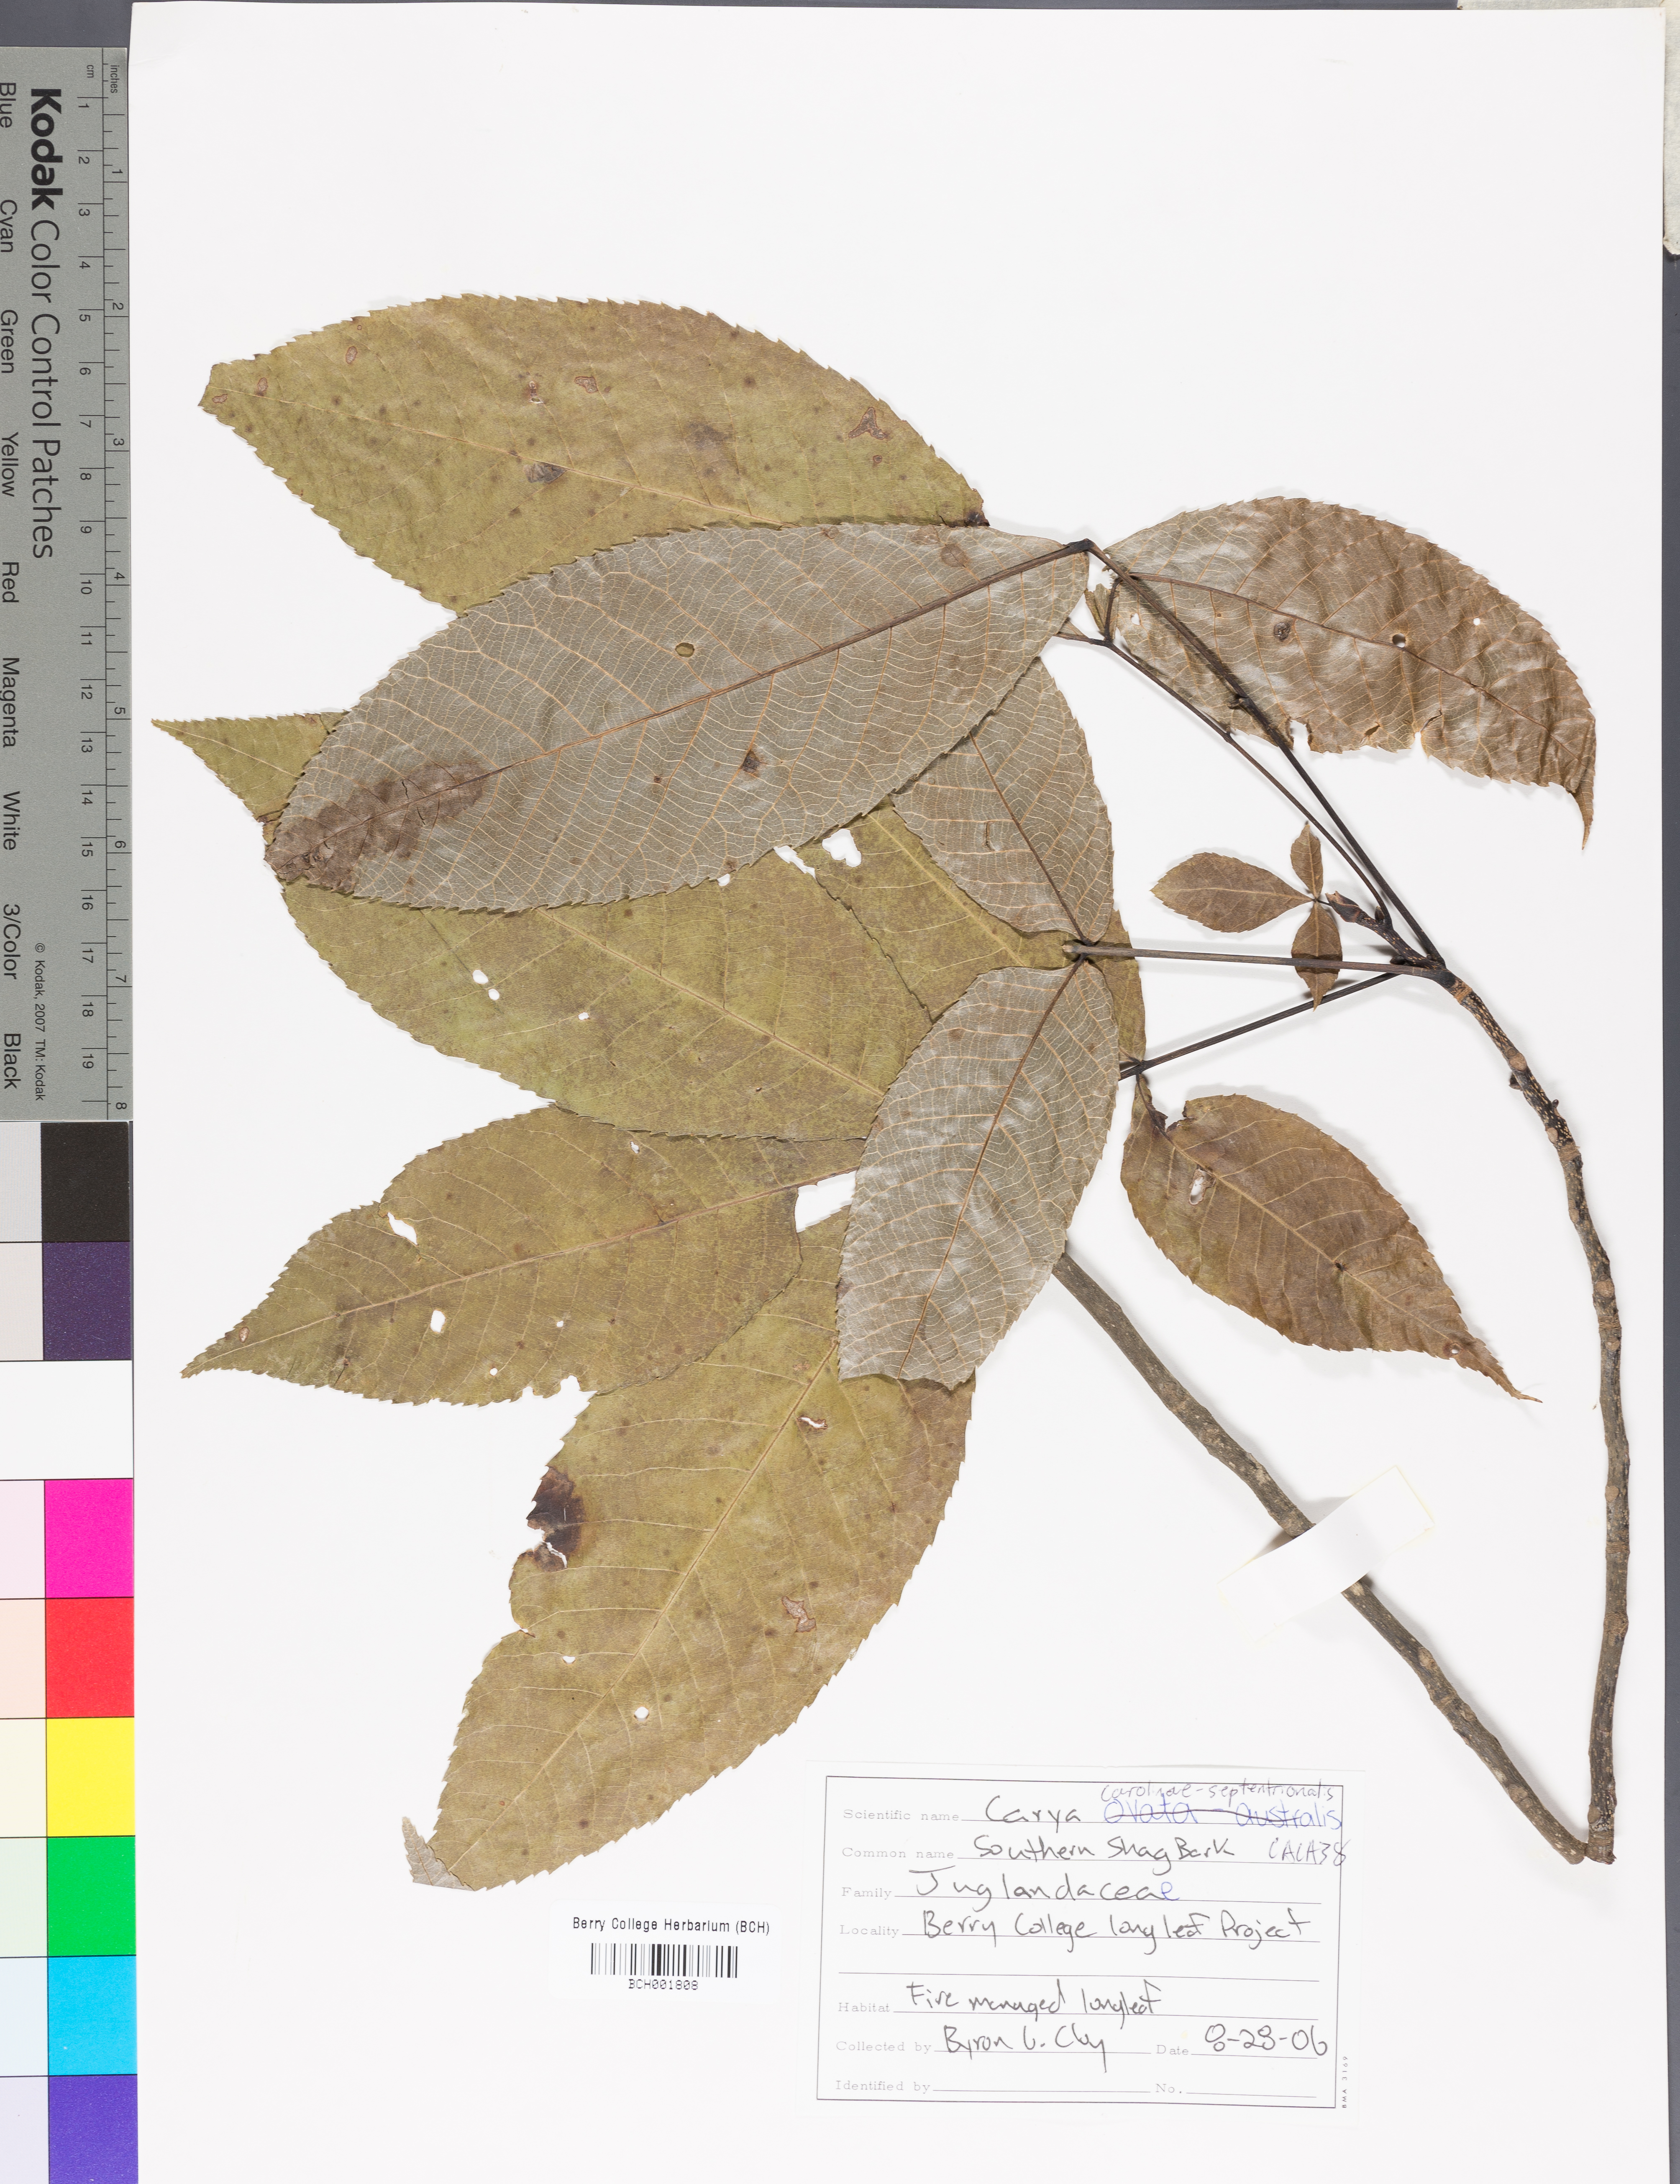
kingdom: Plantae
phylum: Tracheophyta
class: Magnoliopsida
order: Fagales
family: Juglandaceae
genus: Carya
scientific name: Carya carolinae-septentrionalis
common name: Carolina hickory
